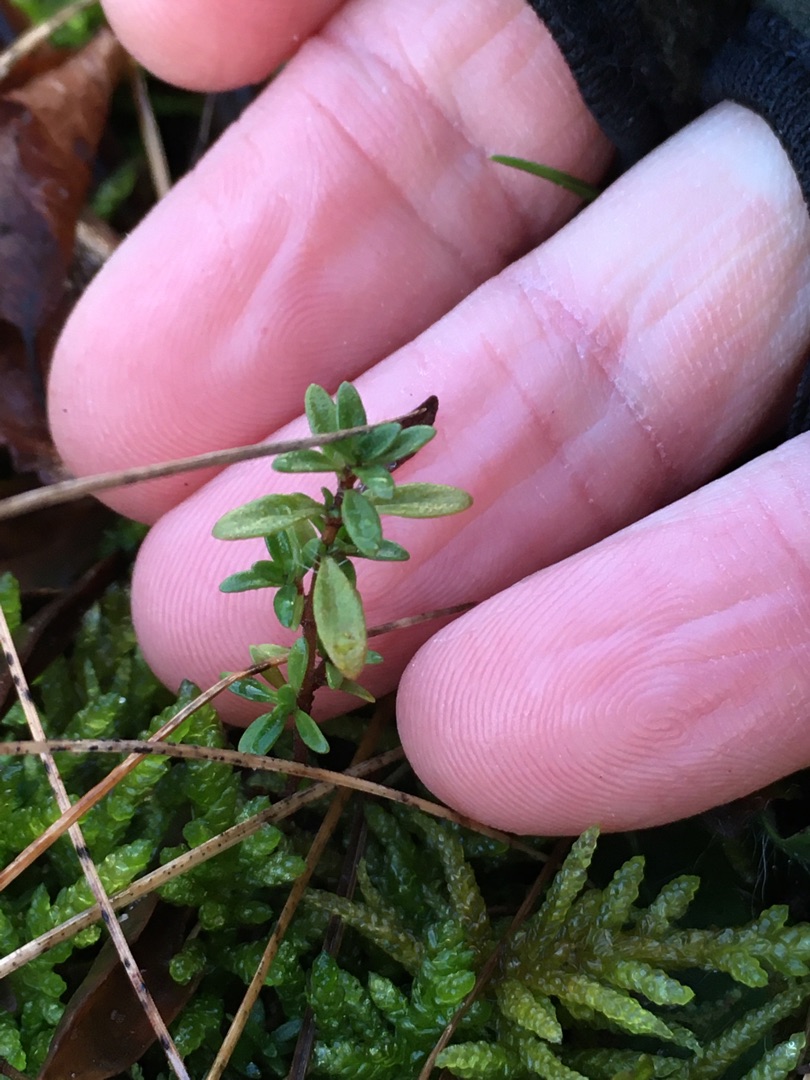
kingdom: Plantae
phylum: Tracheophyta
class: Magnoliopsida
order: Lamiales
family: Lamiaceae
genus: Thymus
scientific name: Thymus serpyllum
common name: Smalbladet timian
